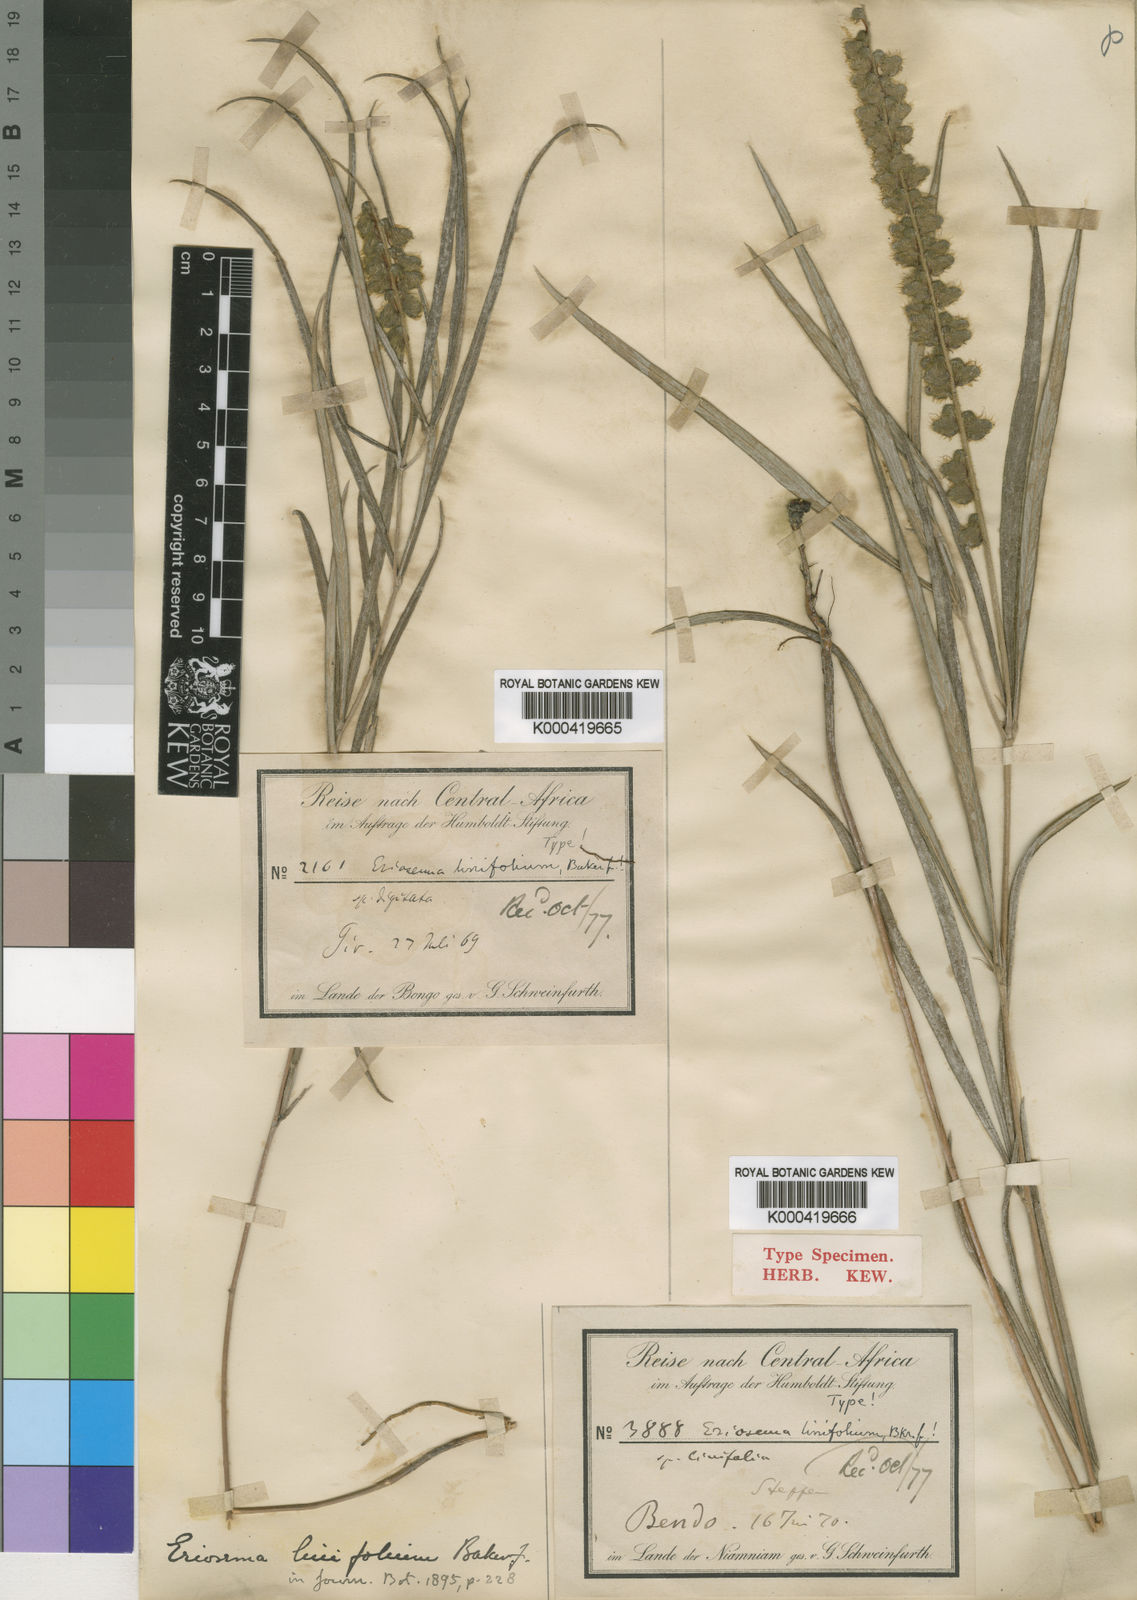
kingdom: Plantae
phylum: Tracheophyta
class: Magnoliopsida
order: Fabales
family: Fabaceae
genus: Eriosema
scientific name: Eriosema linifolium
